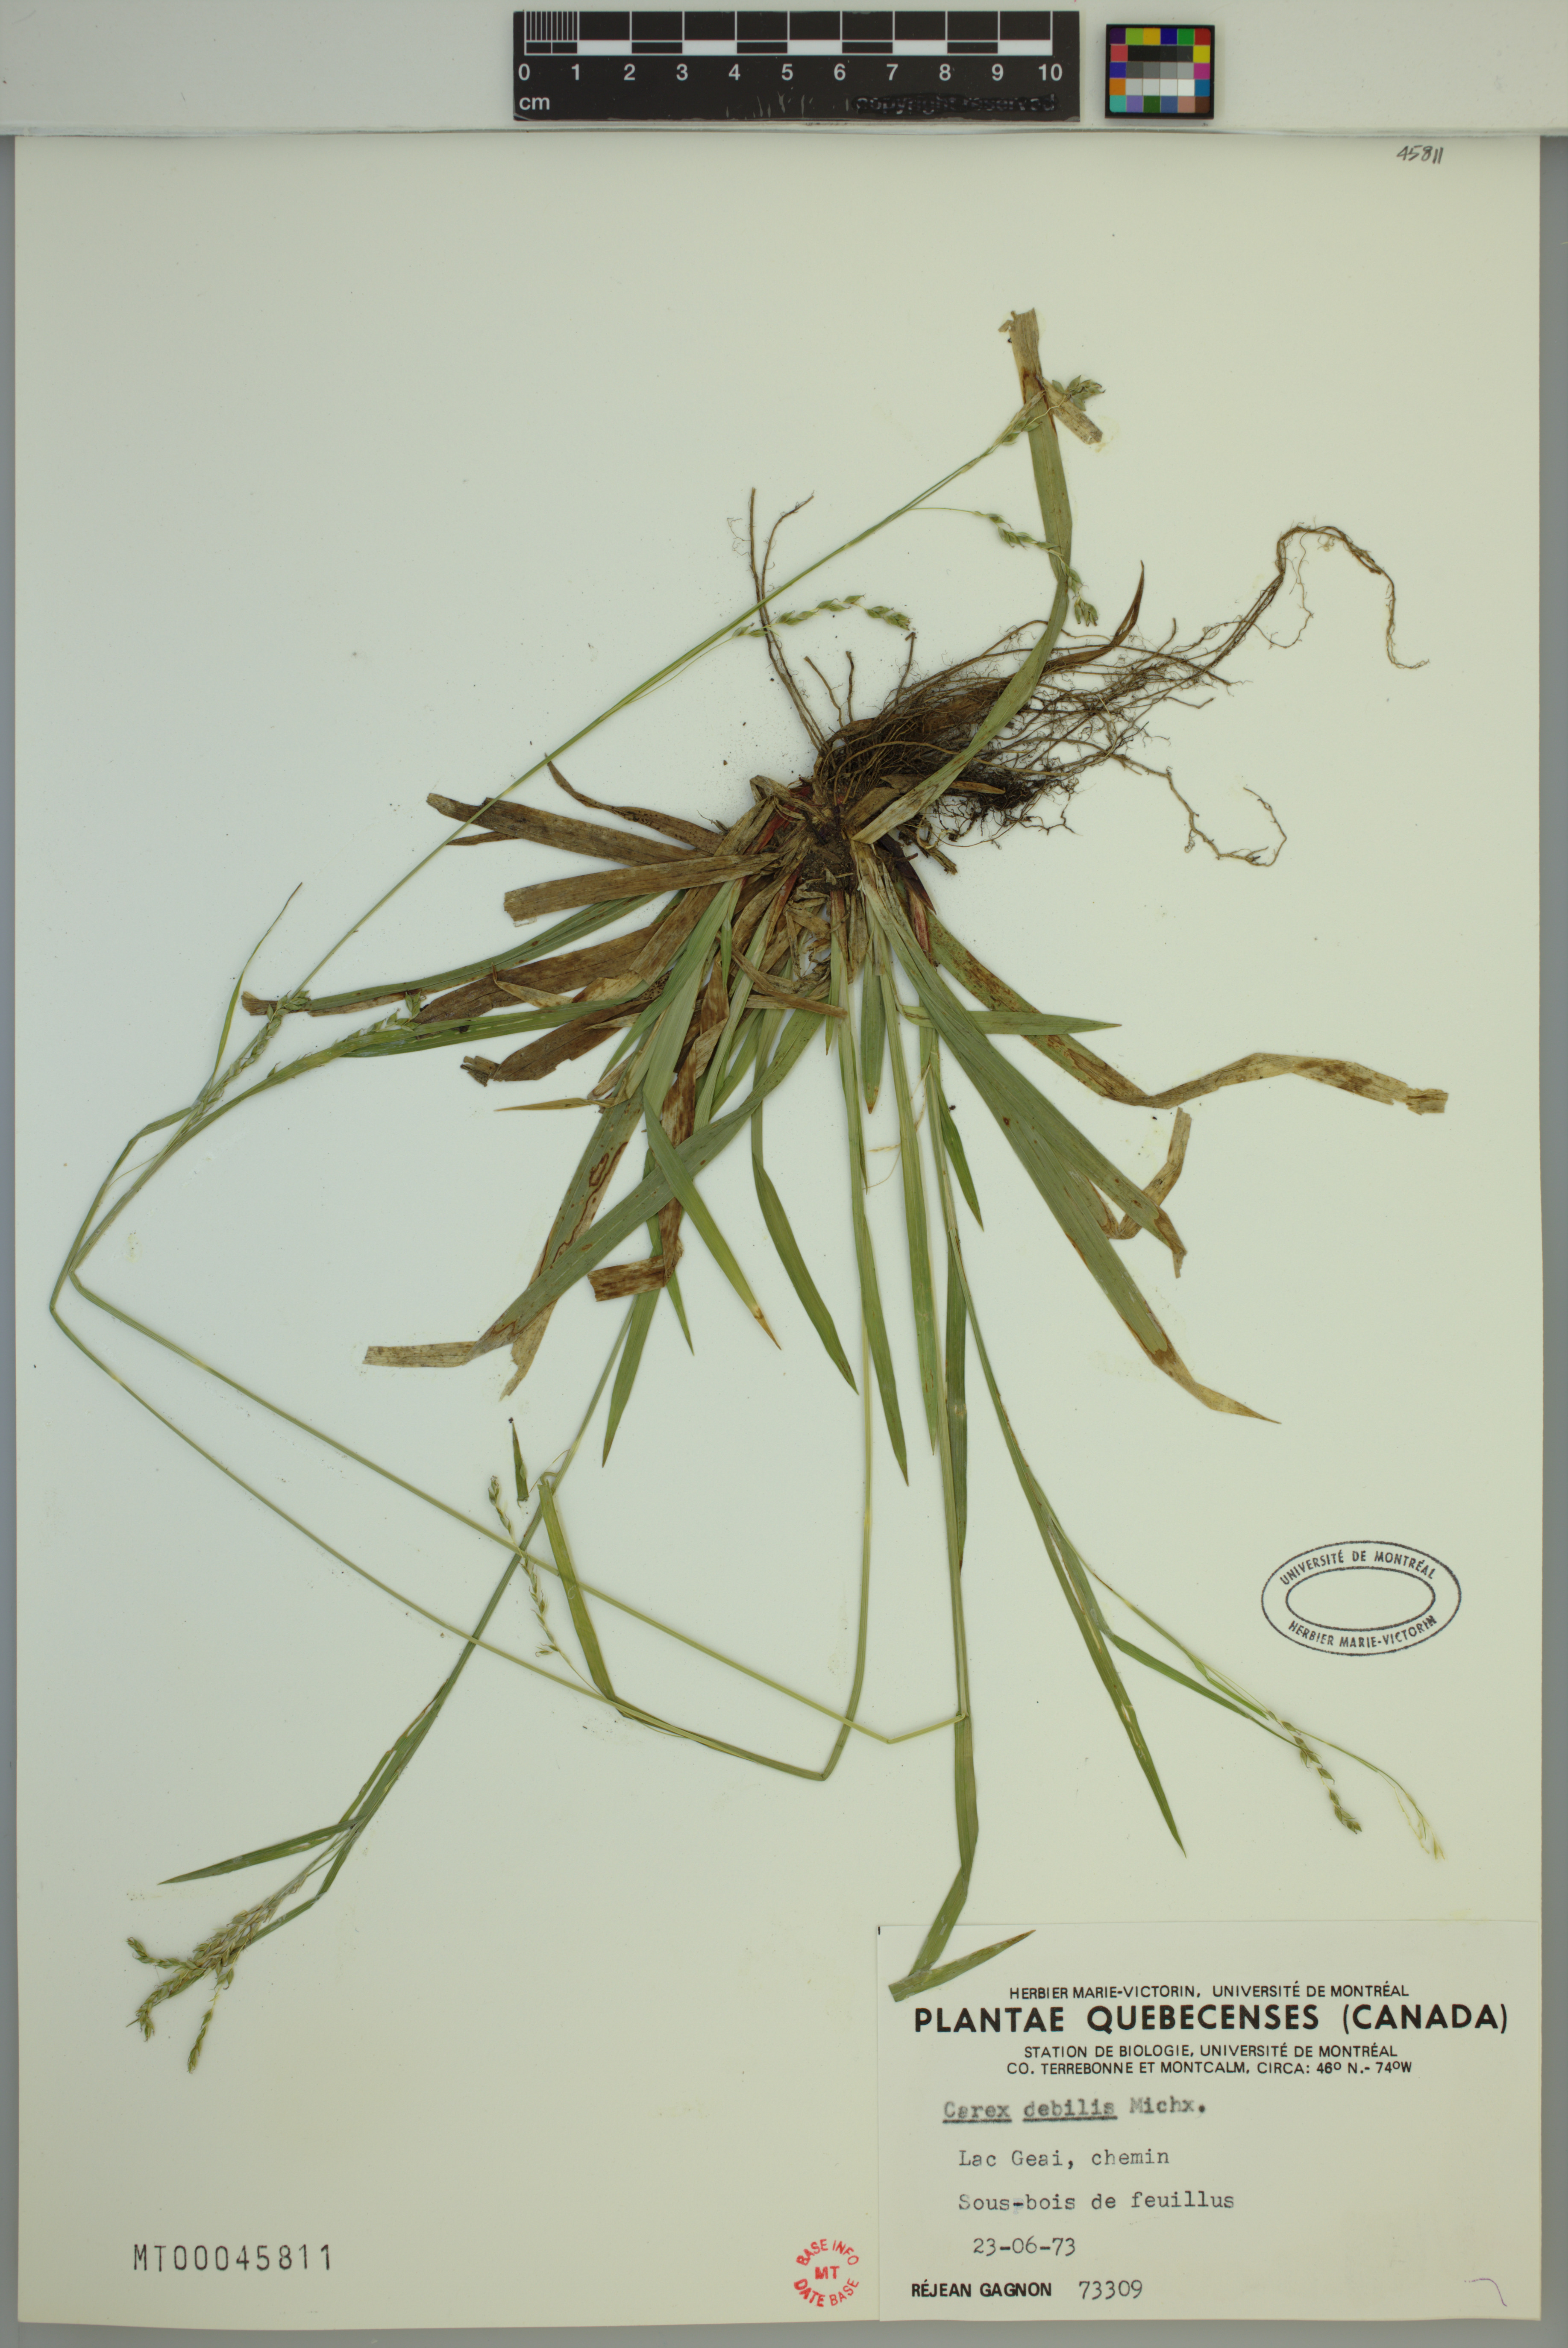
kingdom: Plantae
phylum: Tracheophyta
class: Liliopsida
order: Poales
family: Cyperaceae
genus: Carex
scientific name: Carex debilis
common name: White-edge sedge
